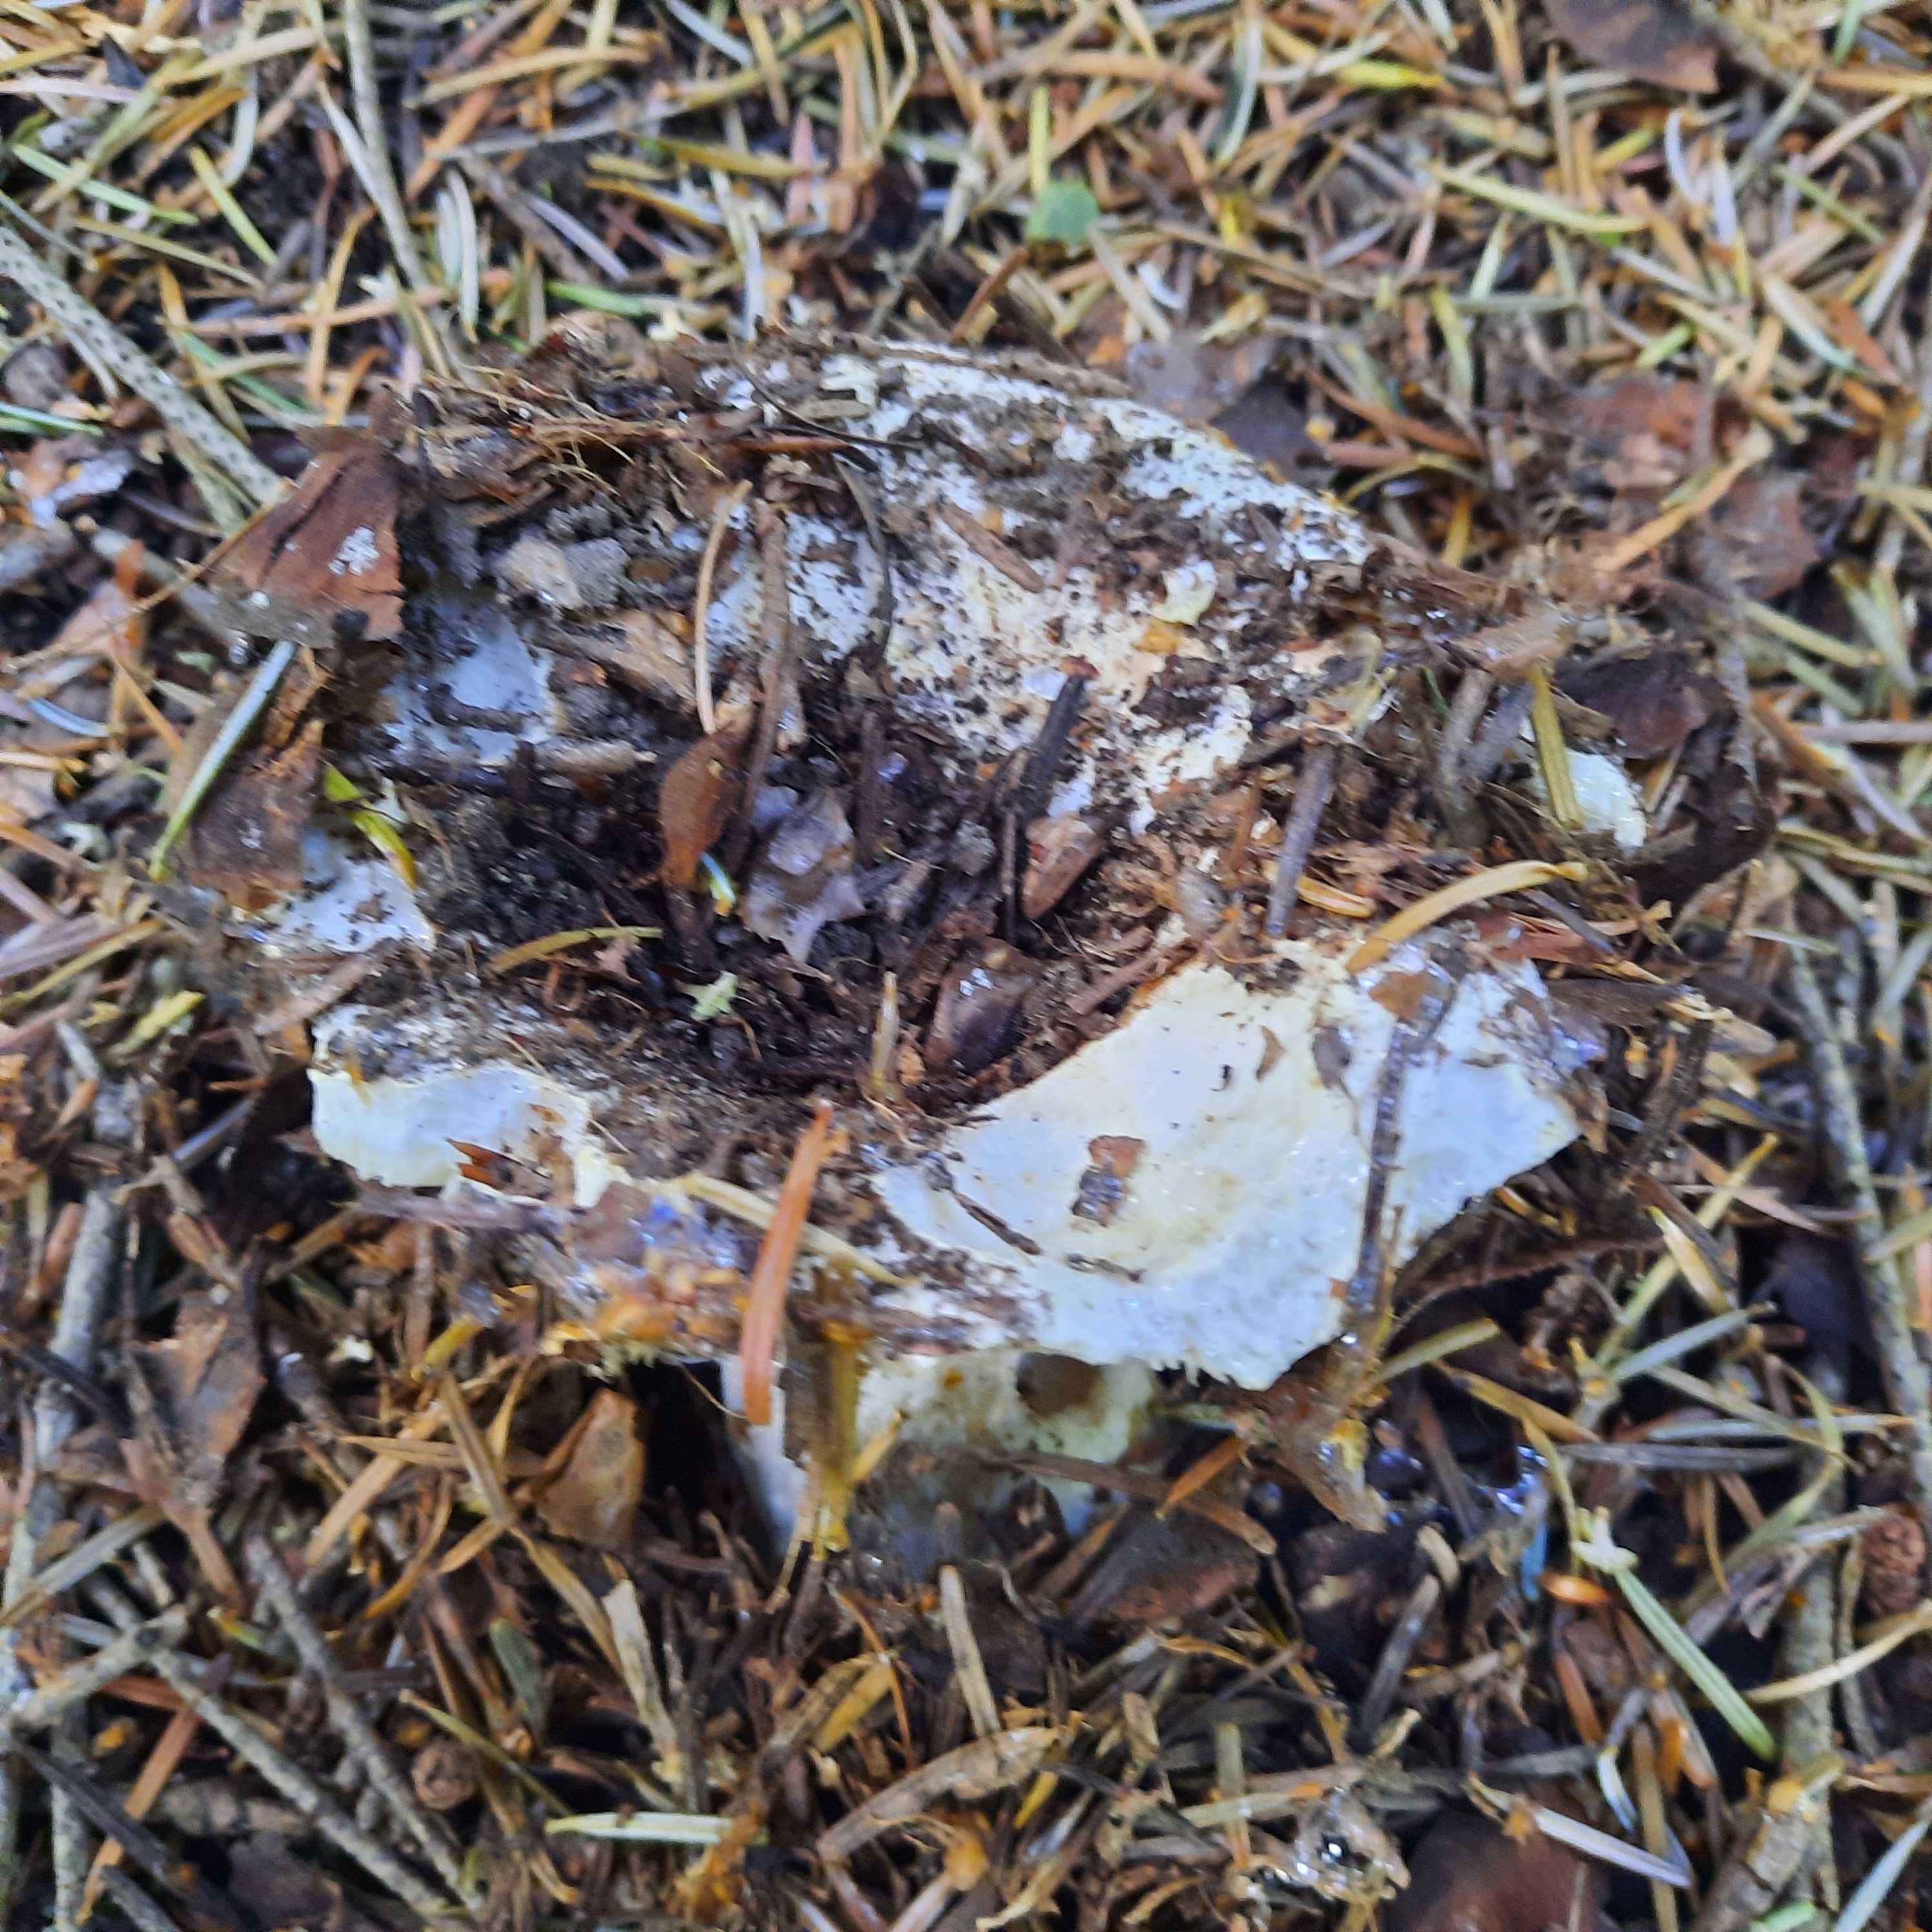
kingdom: Fungi
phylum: Basidiomycota
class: Agaricomycetes
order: Russulales
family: Russulaceae
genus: Russula
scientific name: Russula
